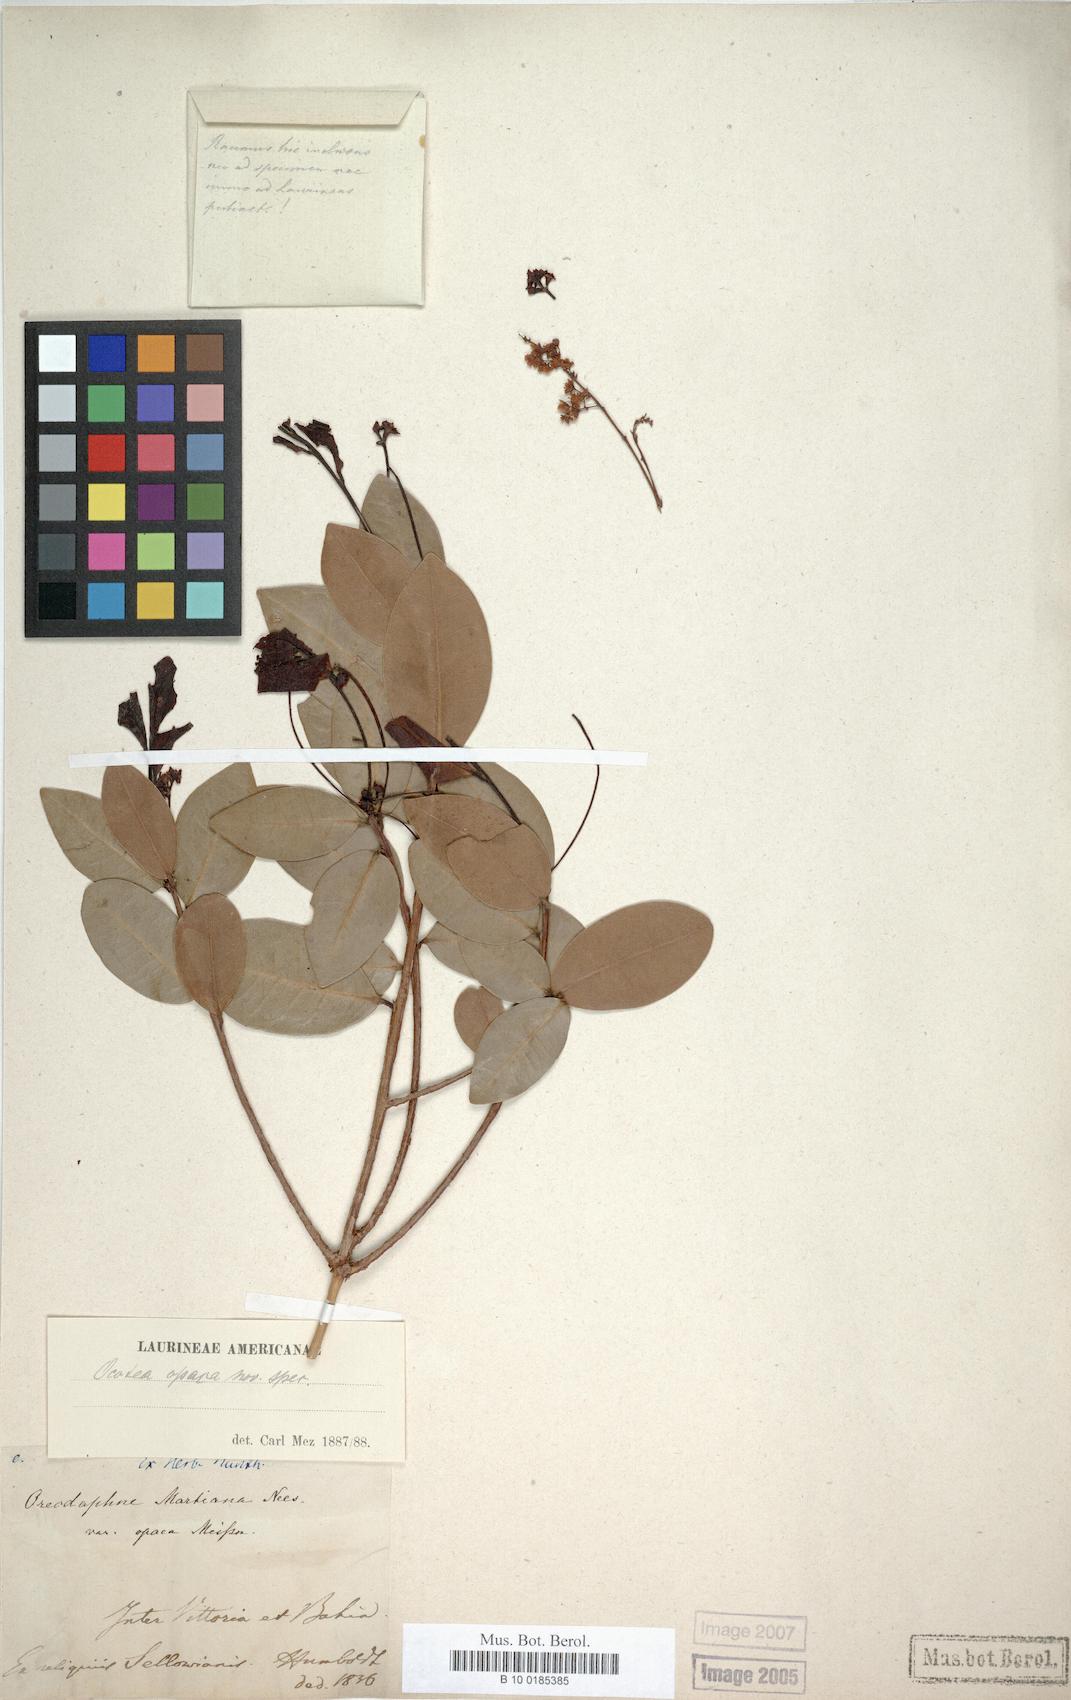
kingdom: Plantae
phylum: Tracheophyta
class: Magnoliopsida
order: Laurales
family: Lauraceae
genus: Ocotea
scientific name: Ocotea lobbii
